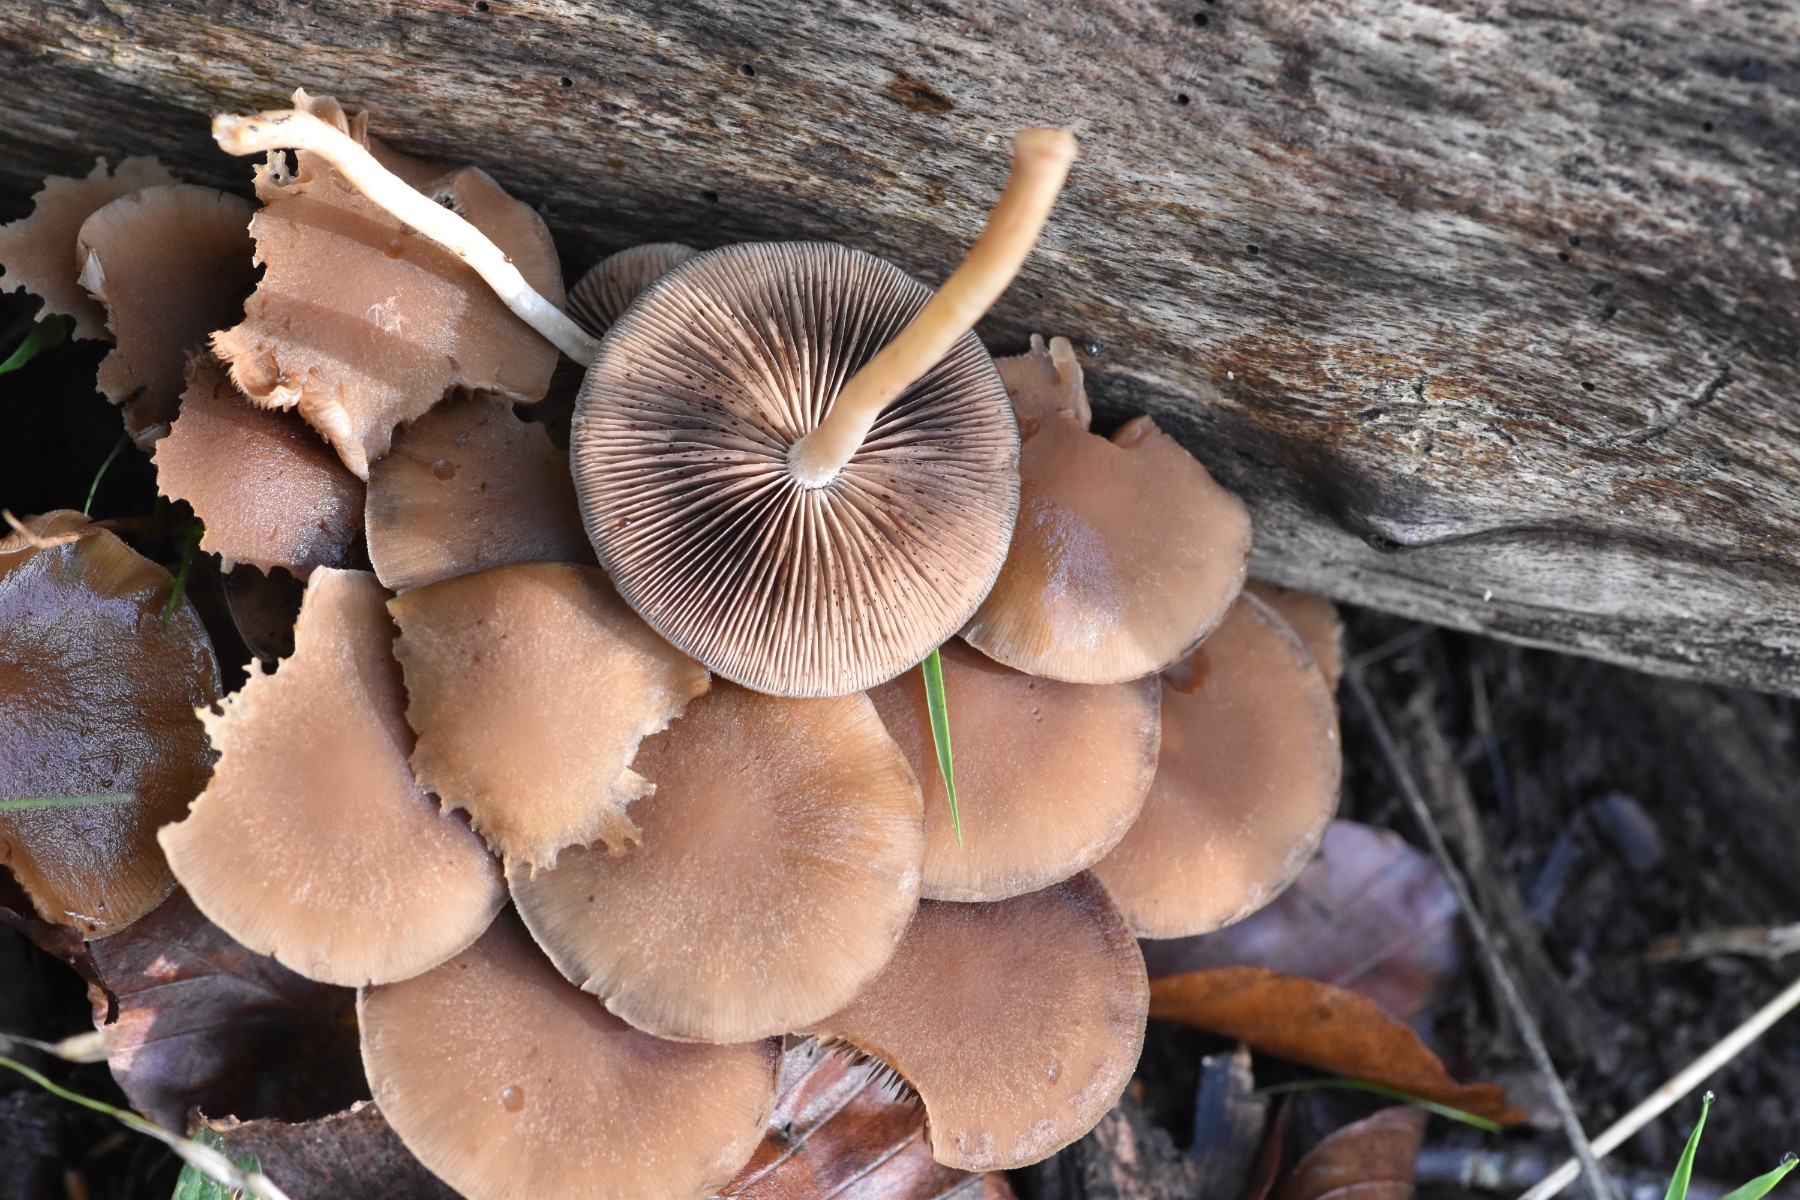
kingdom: Fungi
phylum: Basidiomycota
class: Agaricomycetes
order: Agaricales
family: Psathyrellaceae
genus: Psathyrella
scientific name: Psathyrella piluliformis
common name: lysstokket mørkhat
